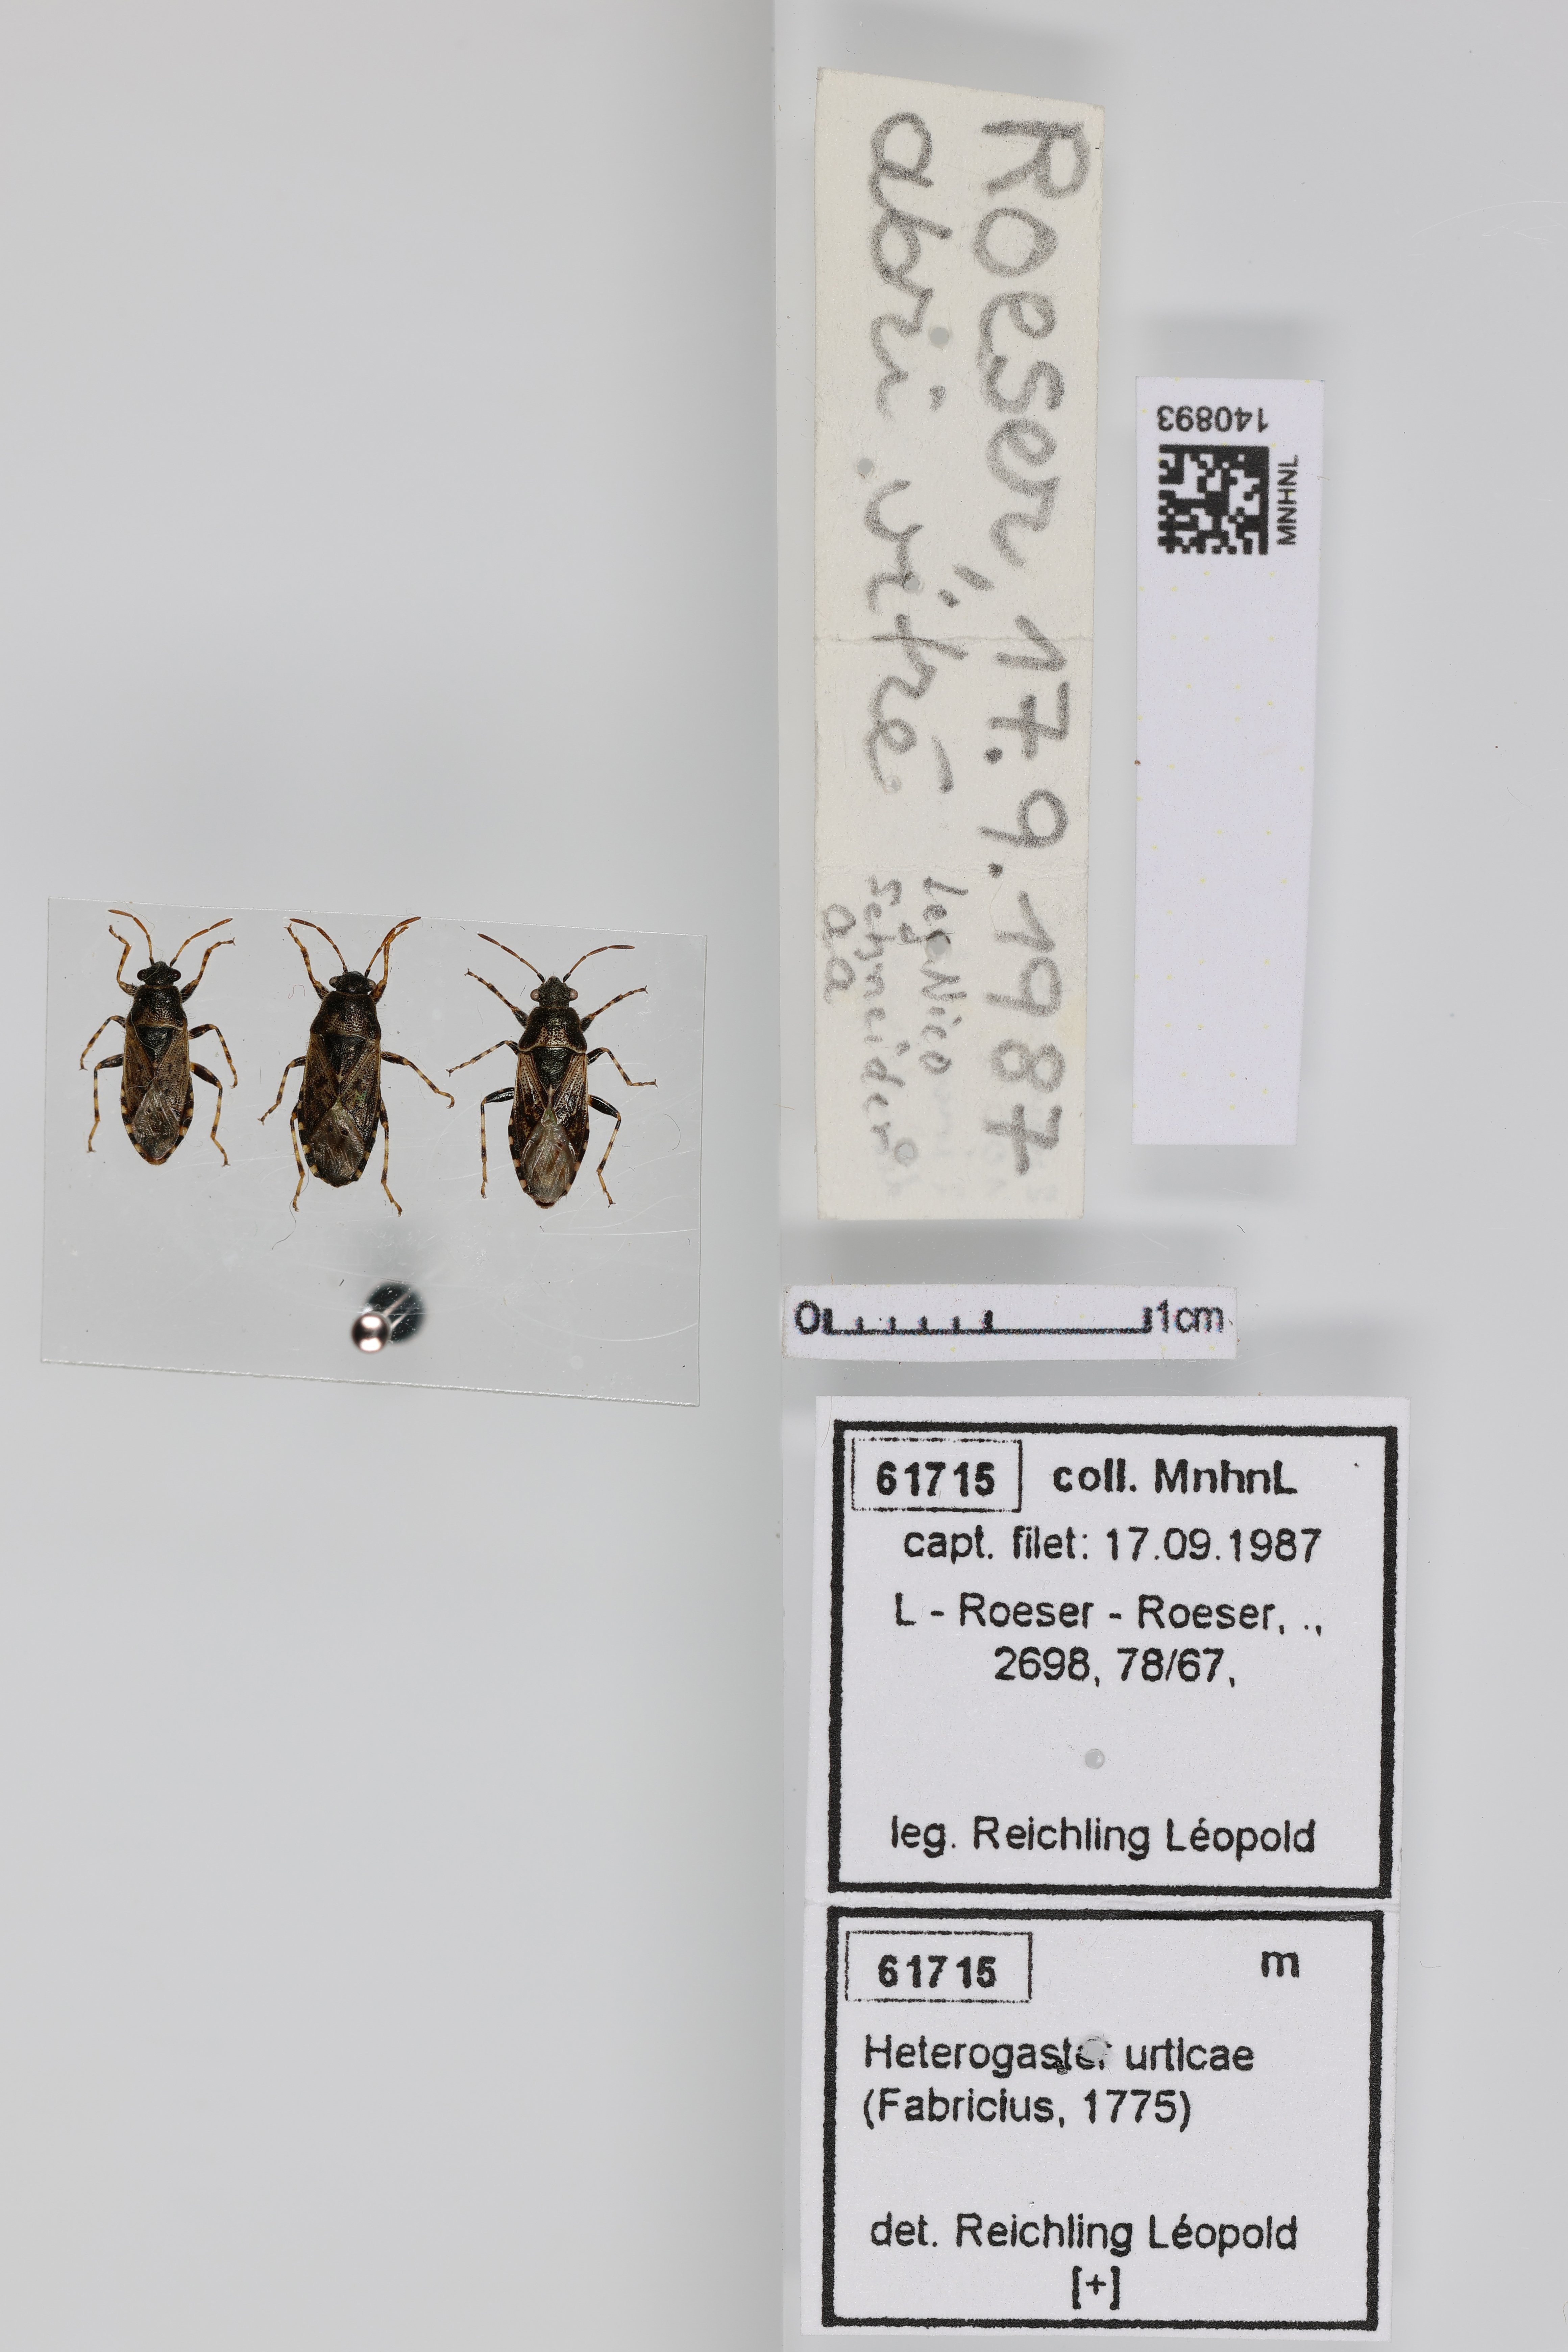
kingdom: Animalia
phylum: Arthropoda
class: Insecta
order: Hemiptera
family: Heterogastridae
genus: Heterogaster
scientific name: Heterogaster urticae
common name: Seed bug
